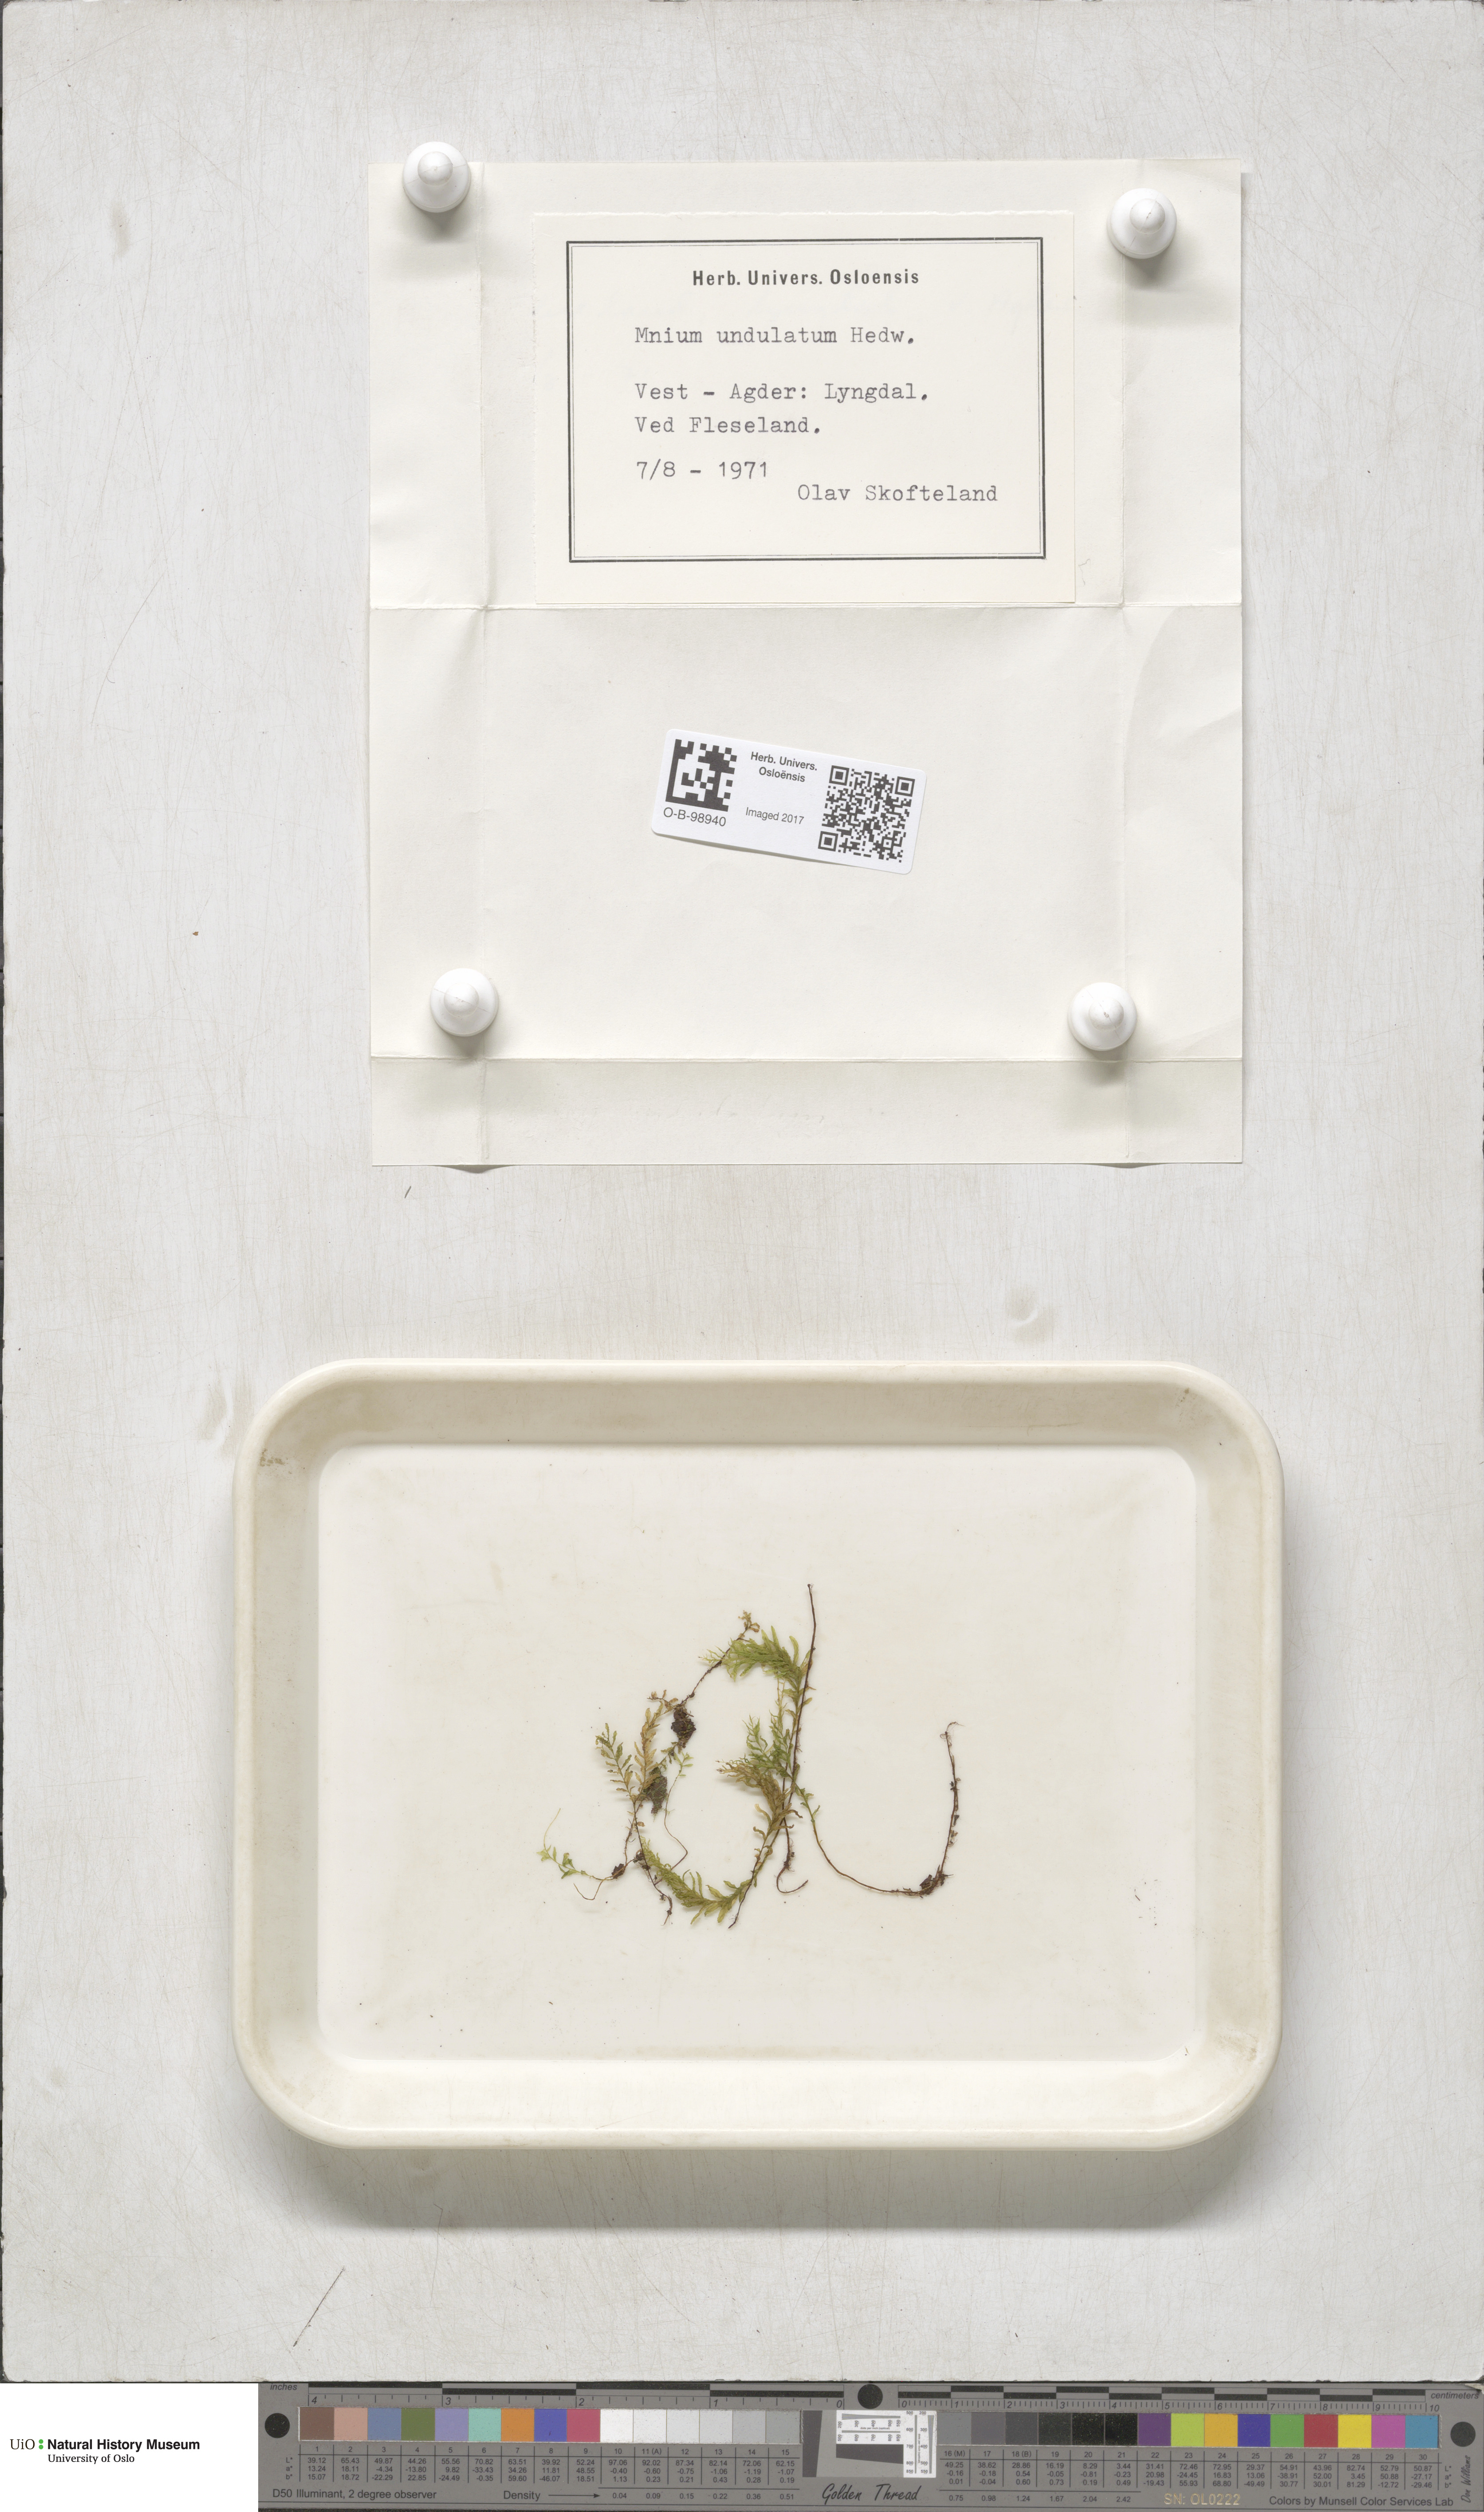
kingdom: Plantae
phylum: Bryophyta
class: Bryopsida
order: Bryales
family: Mniaceae
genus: Plagiomnium
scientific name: Plagiomnium undulatum
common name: Hart's-tongue thyme-moss
